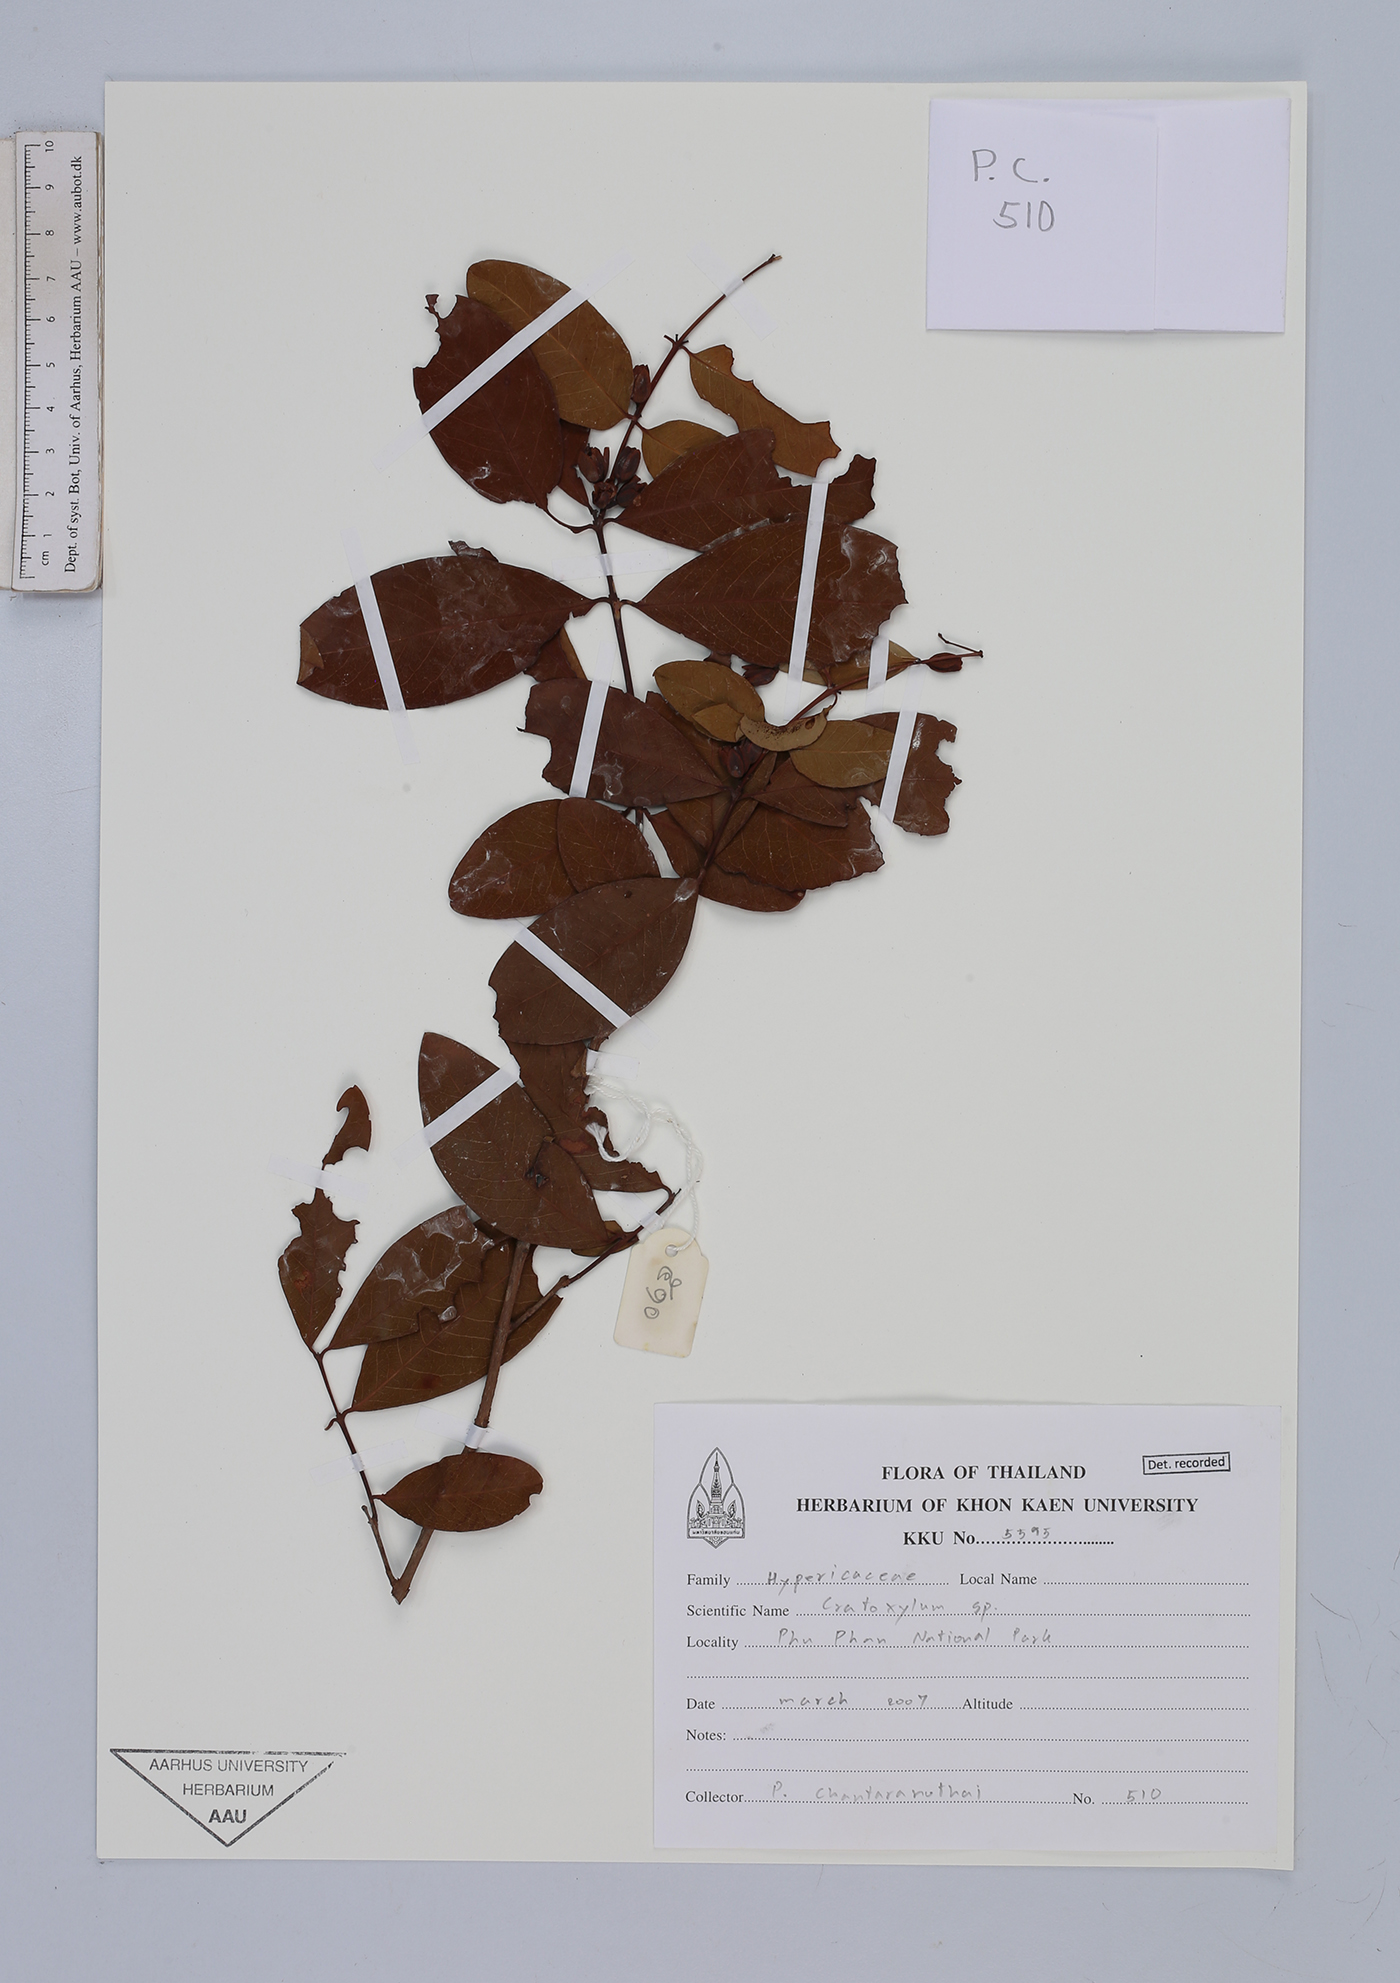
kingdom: Plantae
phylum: Tracheophyta
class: Magnoliopsida
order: Malpighiales
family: Hypericaceae
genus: Cratoxylum
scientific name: Cratoxylum
